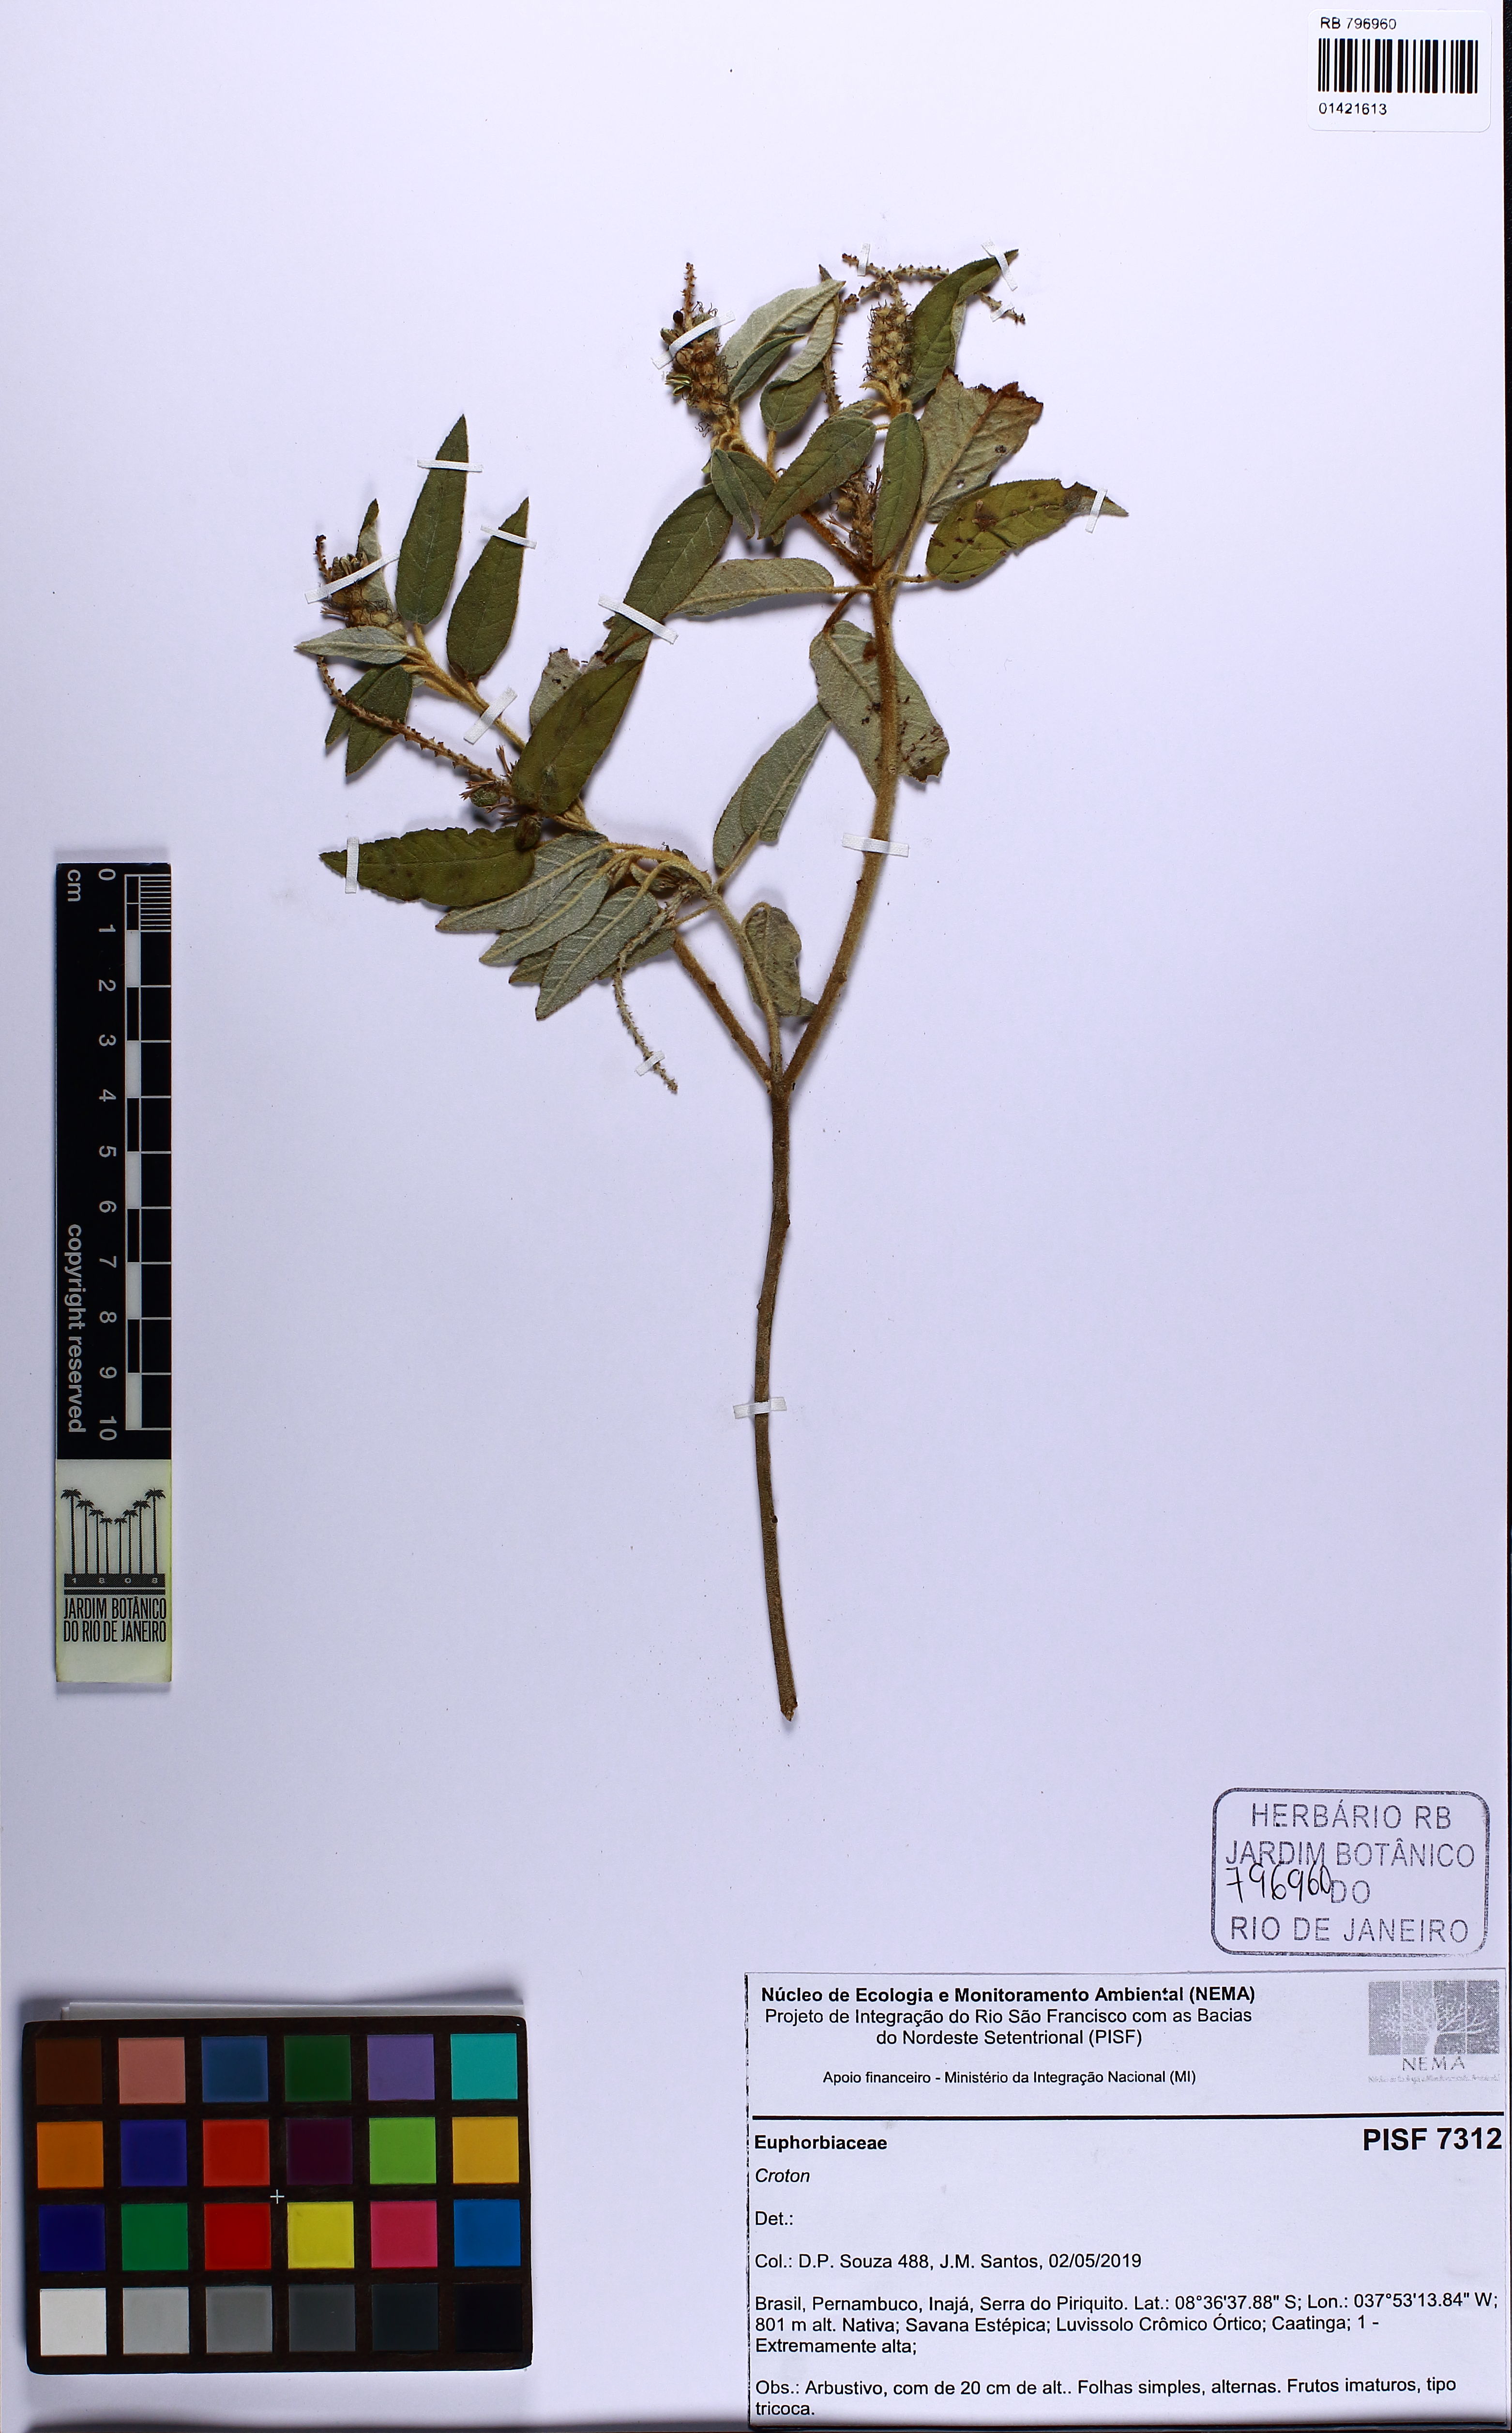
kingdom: Plantae
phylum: Tracheophyta
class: Magnoliopsida
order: Malpighiales
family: Euphorbiaceae
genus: Croton
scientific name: Croton
